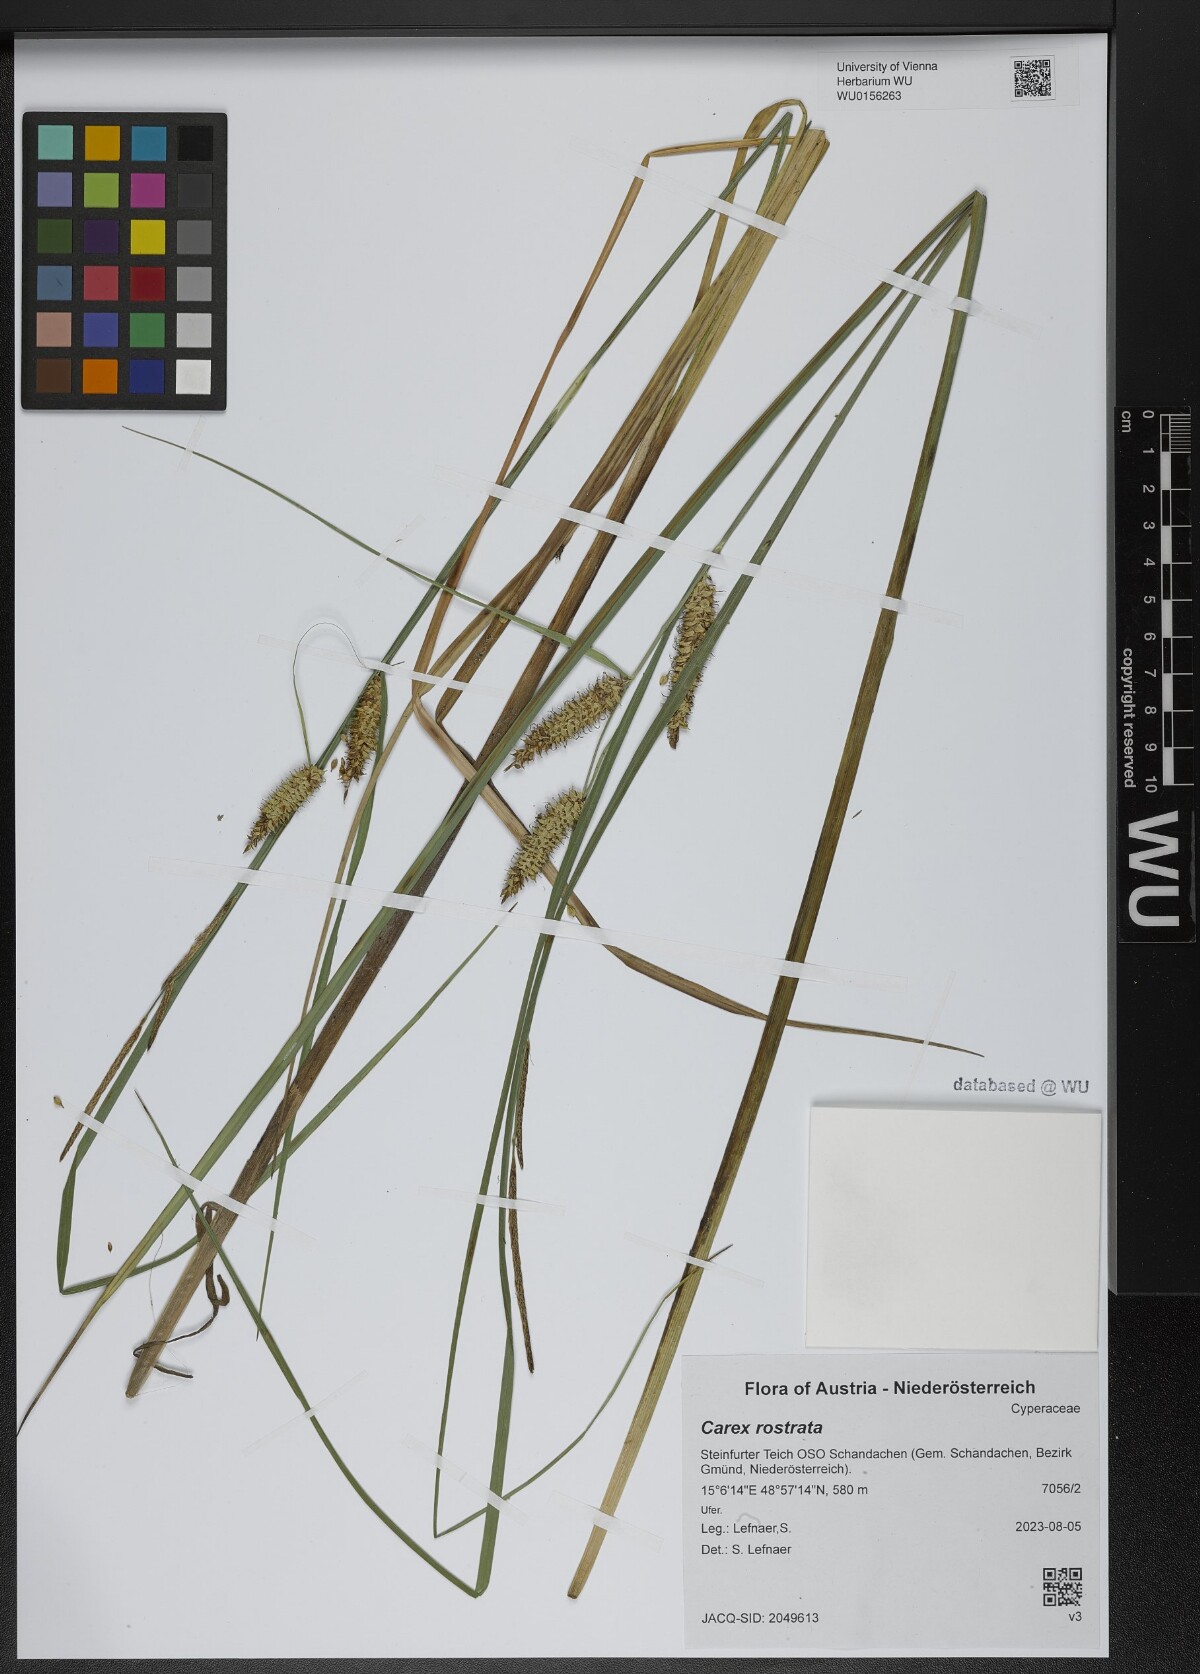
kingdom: Plantae
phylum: Tracheophyta
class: Liliopsida
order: Poales
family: Cyperaceae
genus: Carex
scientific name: Carex rostrata
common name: Bottle sedge
